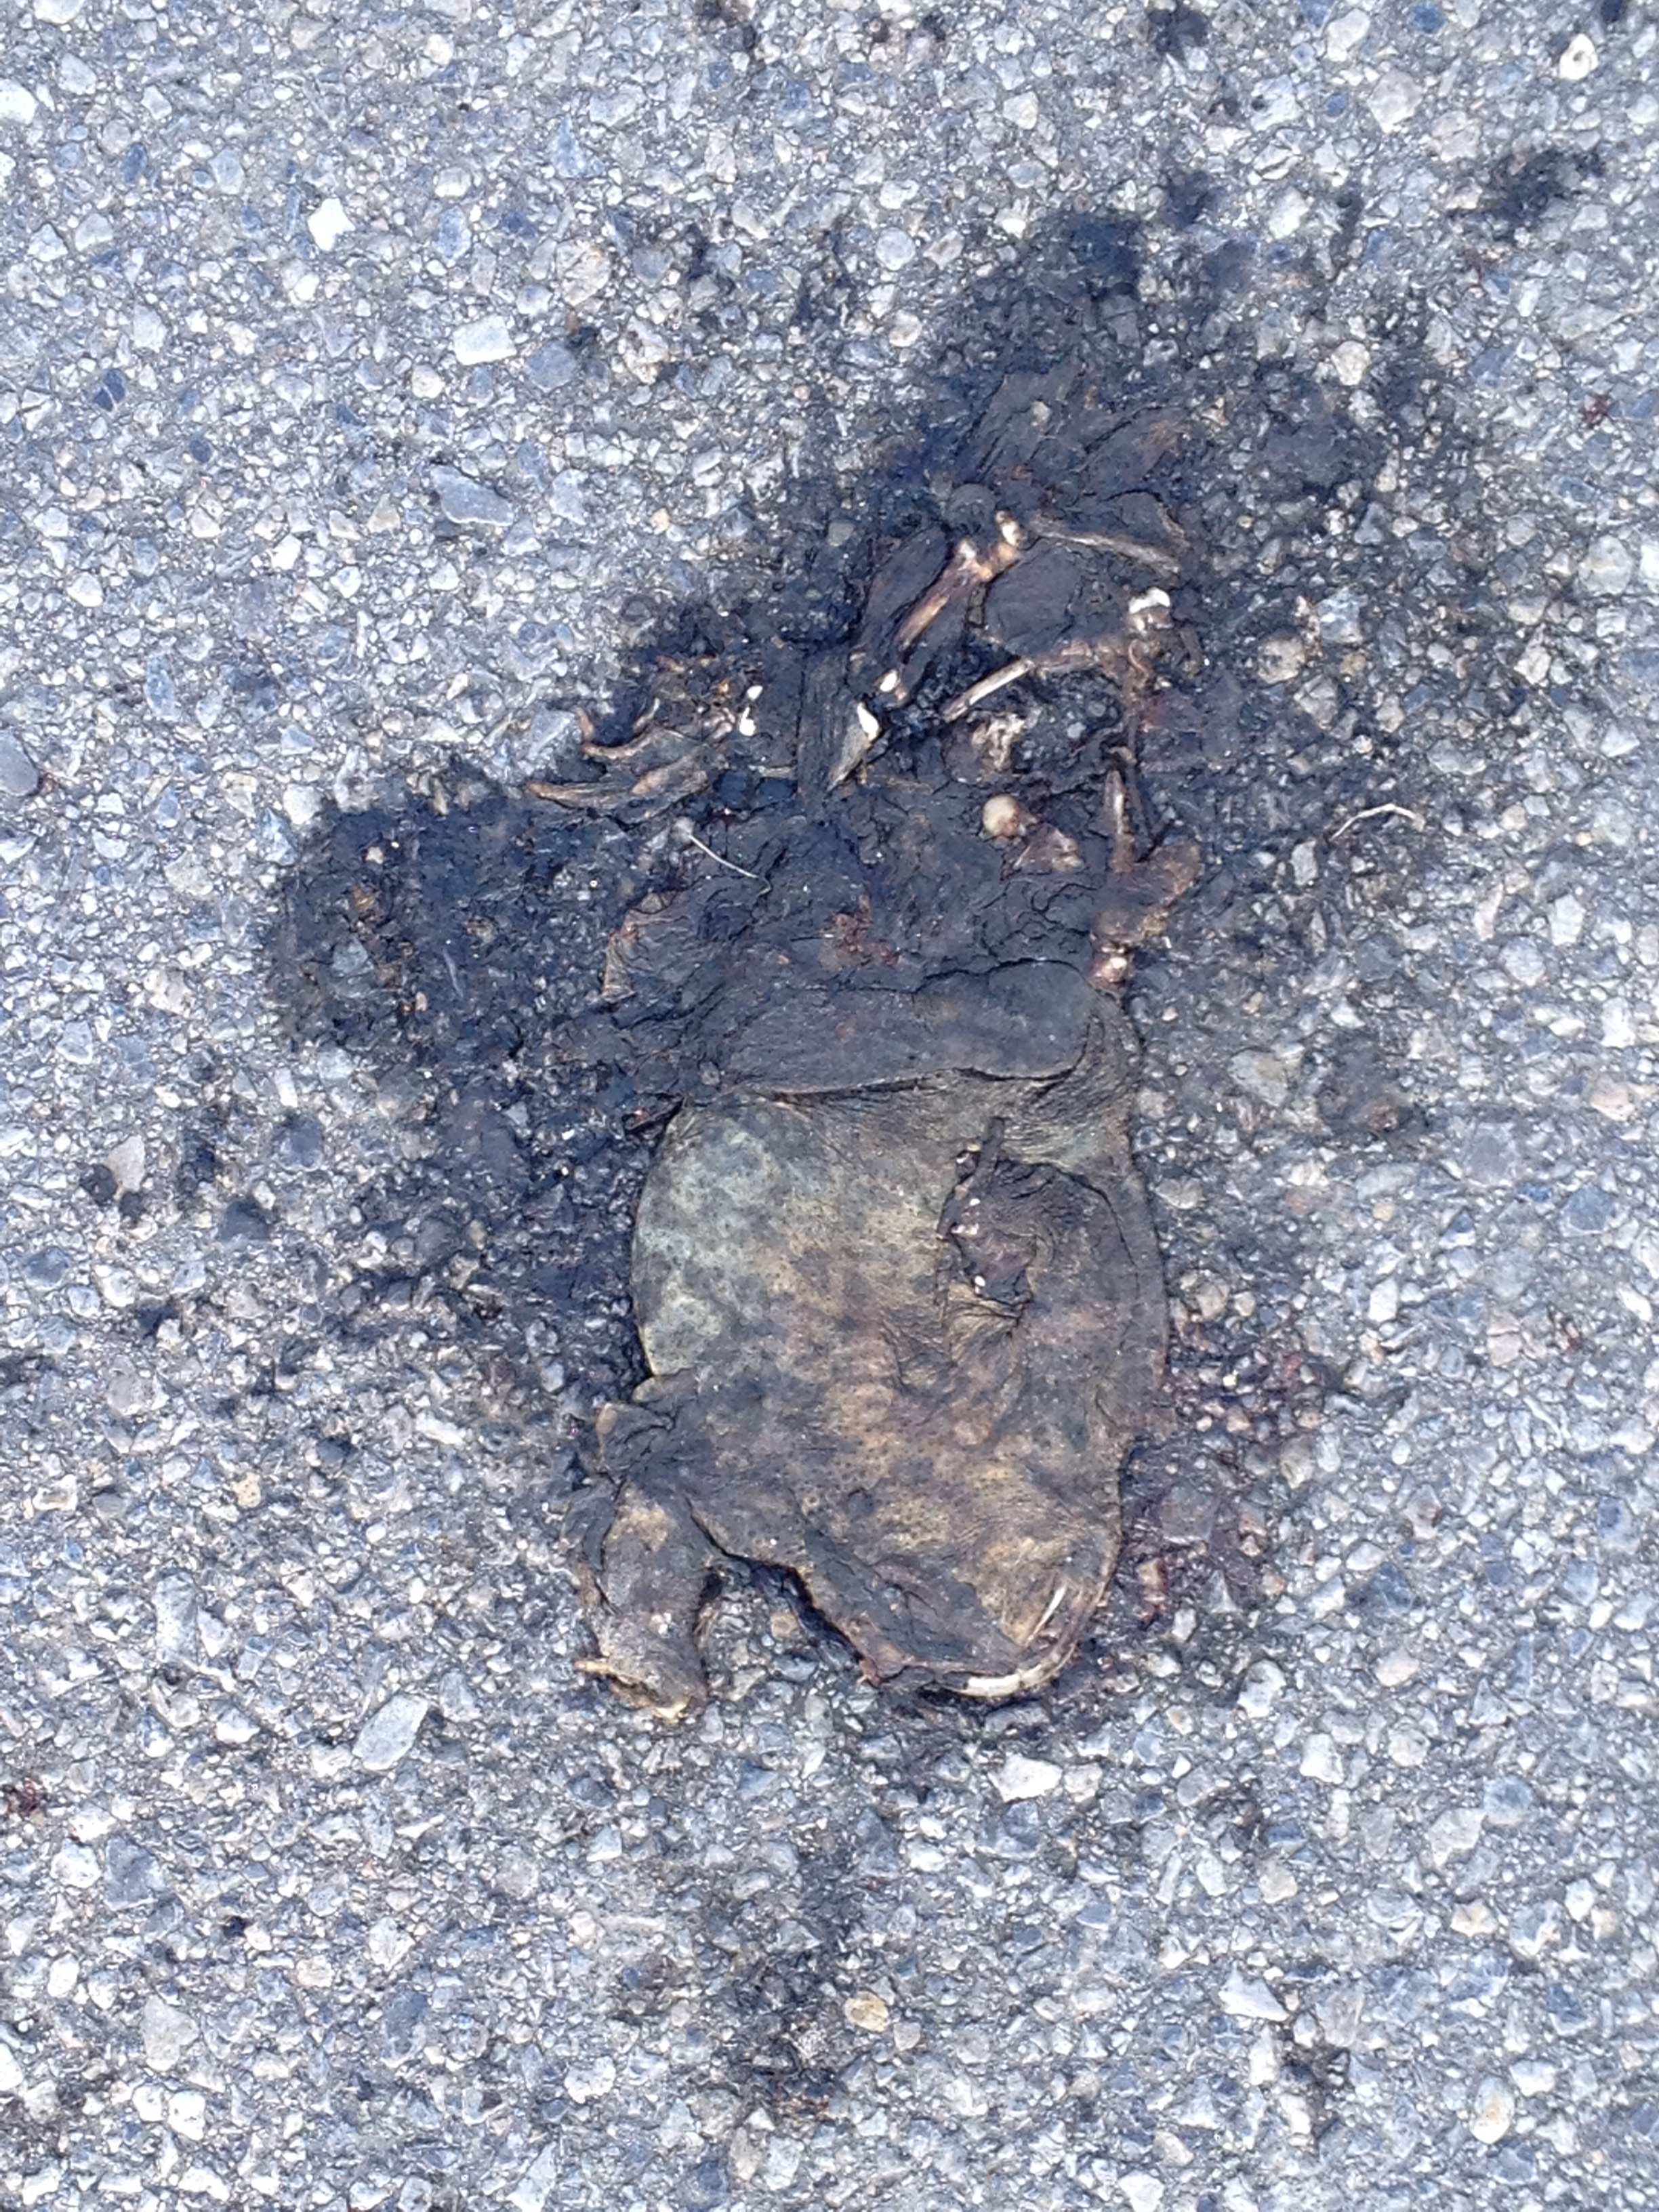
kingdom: Animalia
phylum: Chordata
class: Amphibia
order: Anura
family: Bufonidae
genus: Bufo
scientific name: Bufo bufo
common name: Common toad
